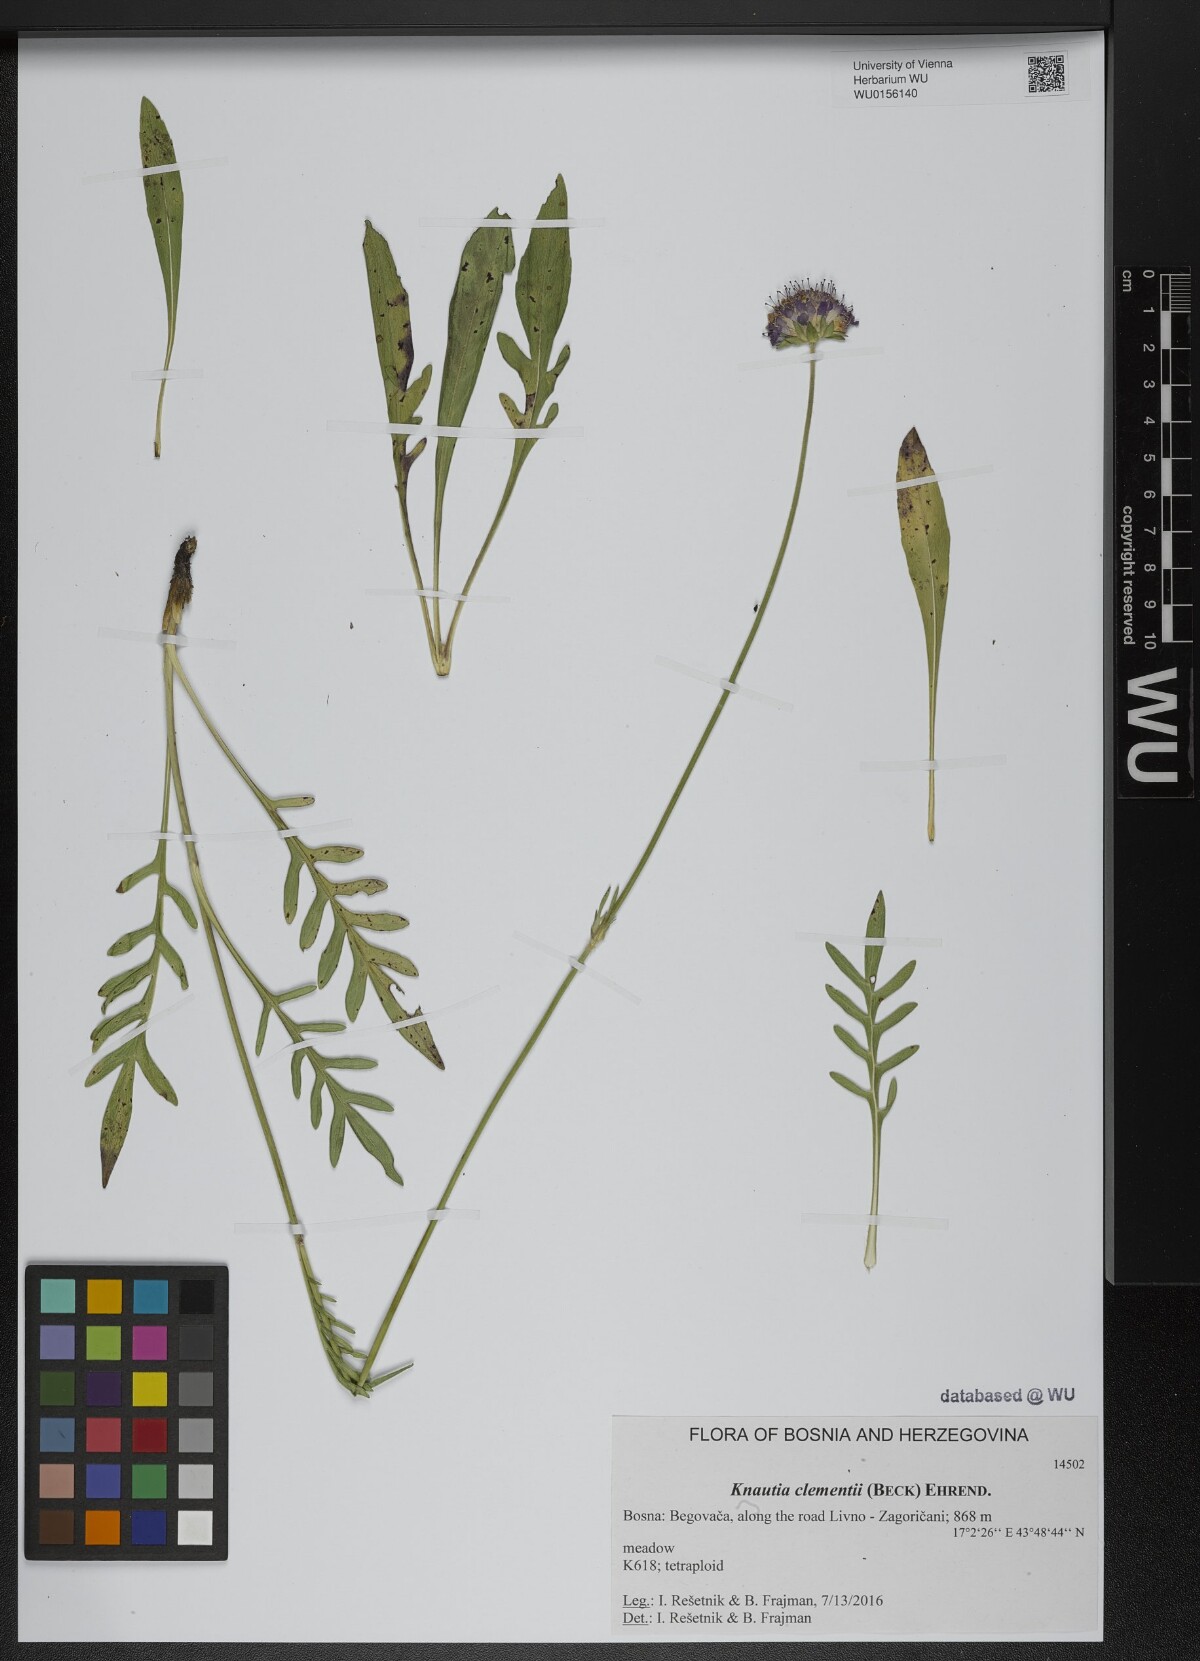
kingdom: Plantae
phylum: Tracheophyta
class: Magnoliopsida
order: Dipsacales
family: Caprifoliaceae
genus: Knautia
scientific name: Knautia clementii
